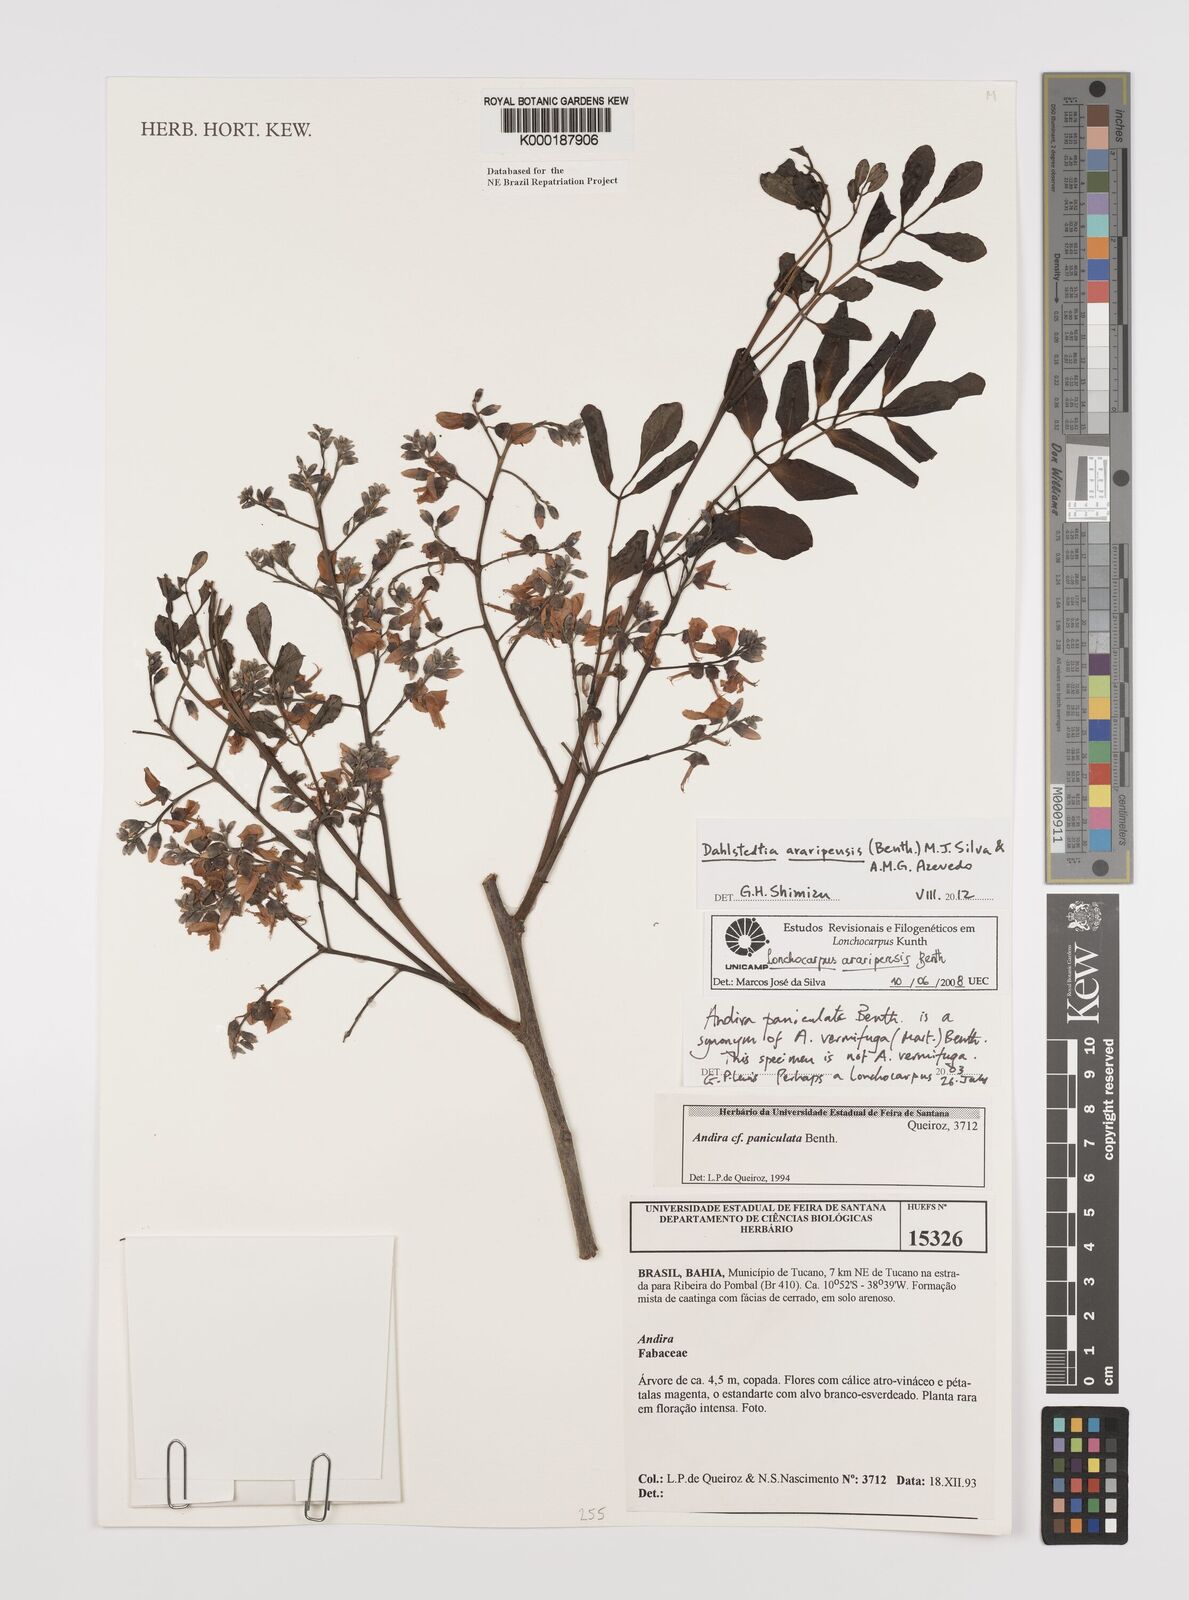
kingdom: Plantae
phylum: Tracheophyta
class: Magnoliopsida
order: Fabales
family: Fabaceae
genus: Lonchocarpus
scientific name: Lonchocarpus
